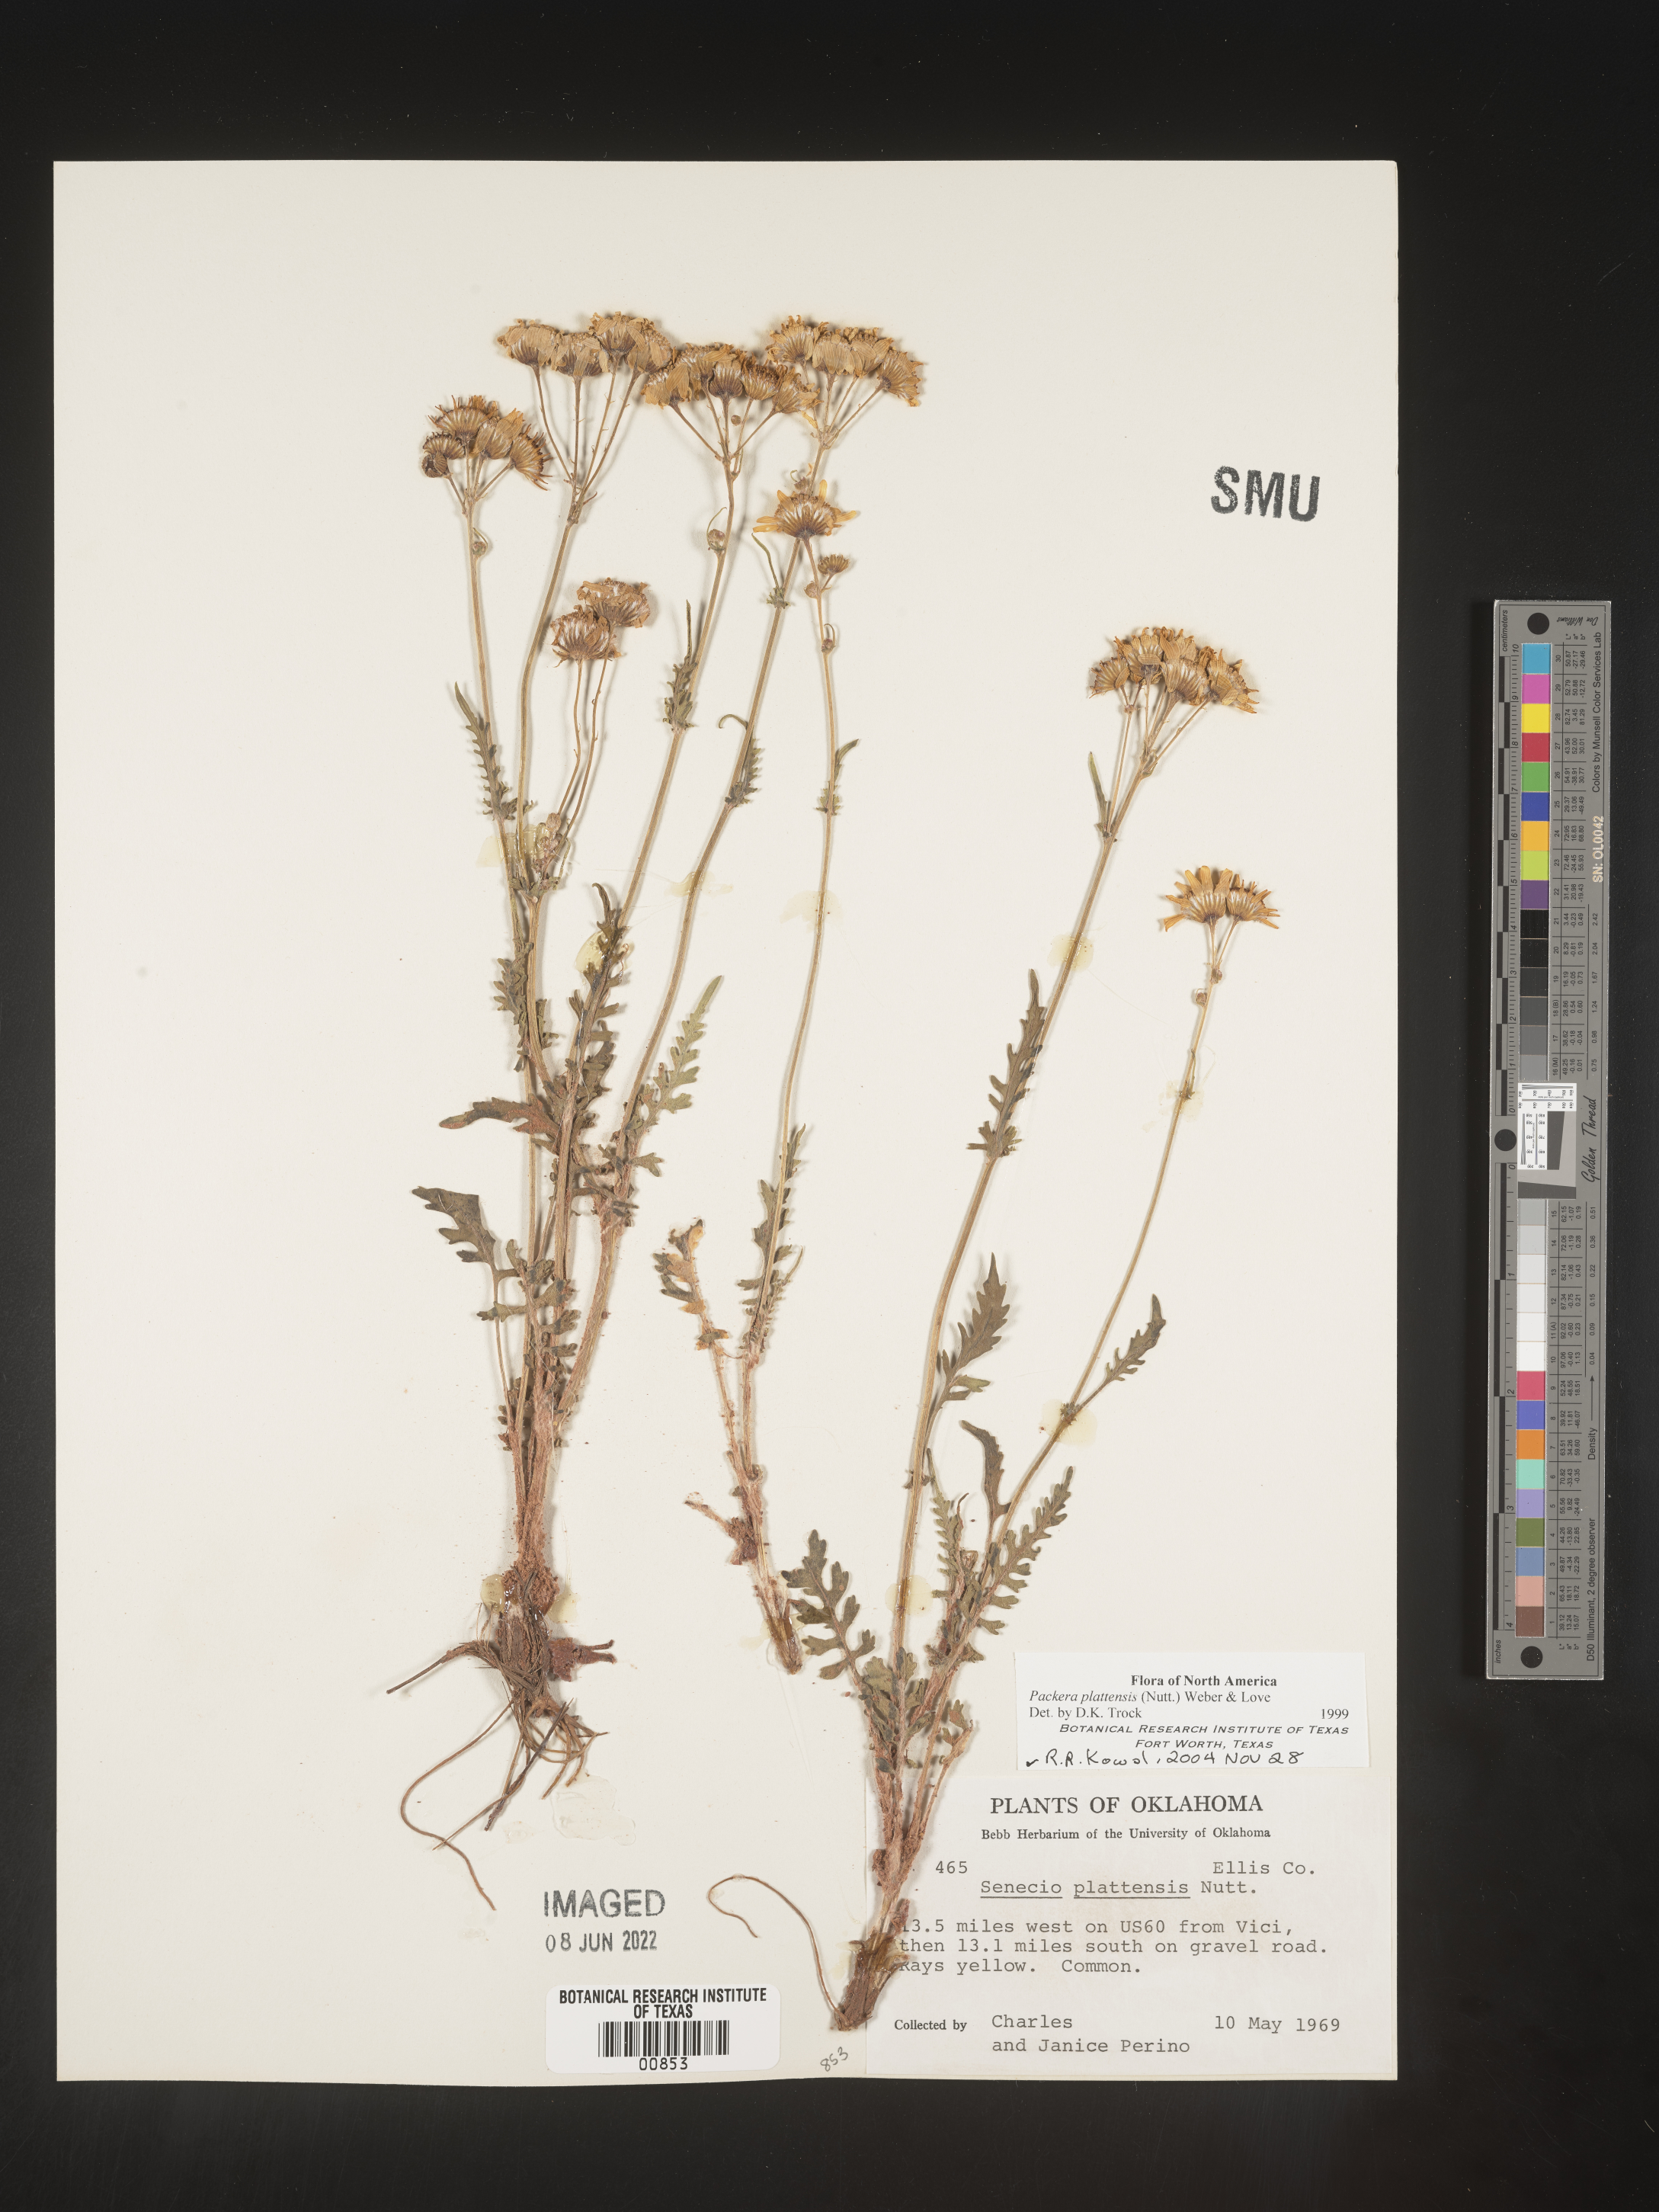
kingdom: Plantae
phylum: Tracheophyta
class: Magnoliopsida
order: Asterales
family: Asteraceae
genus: Packera
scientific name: Packera plattensis
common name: Prairie groundsel
